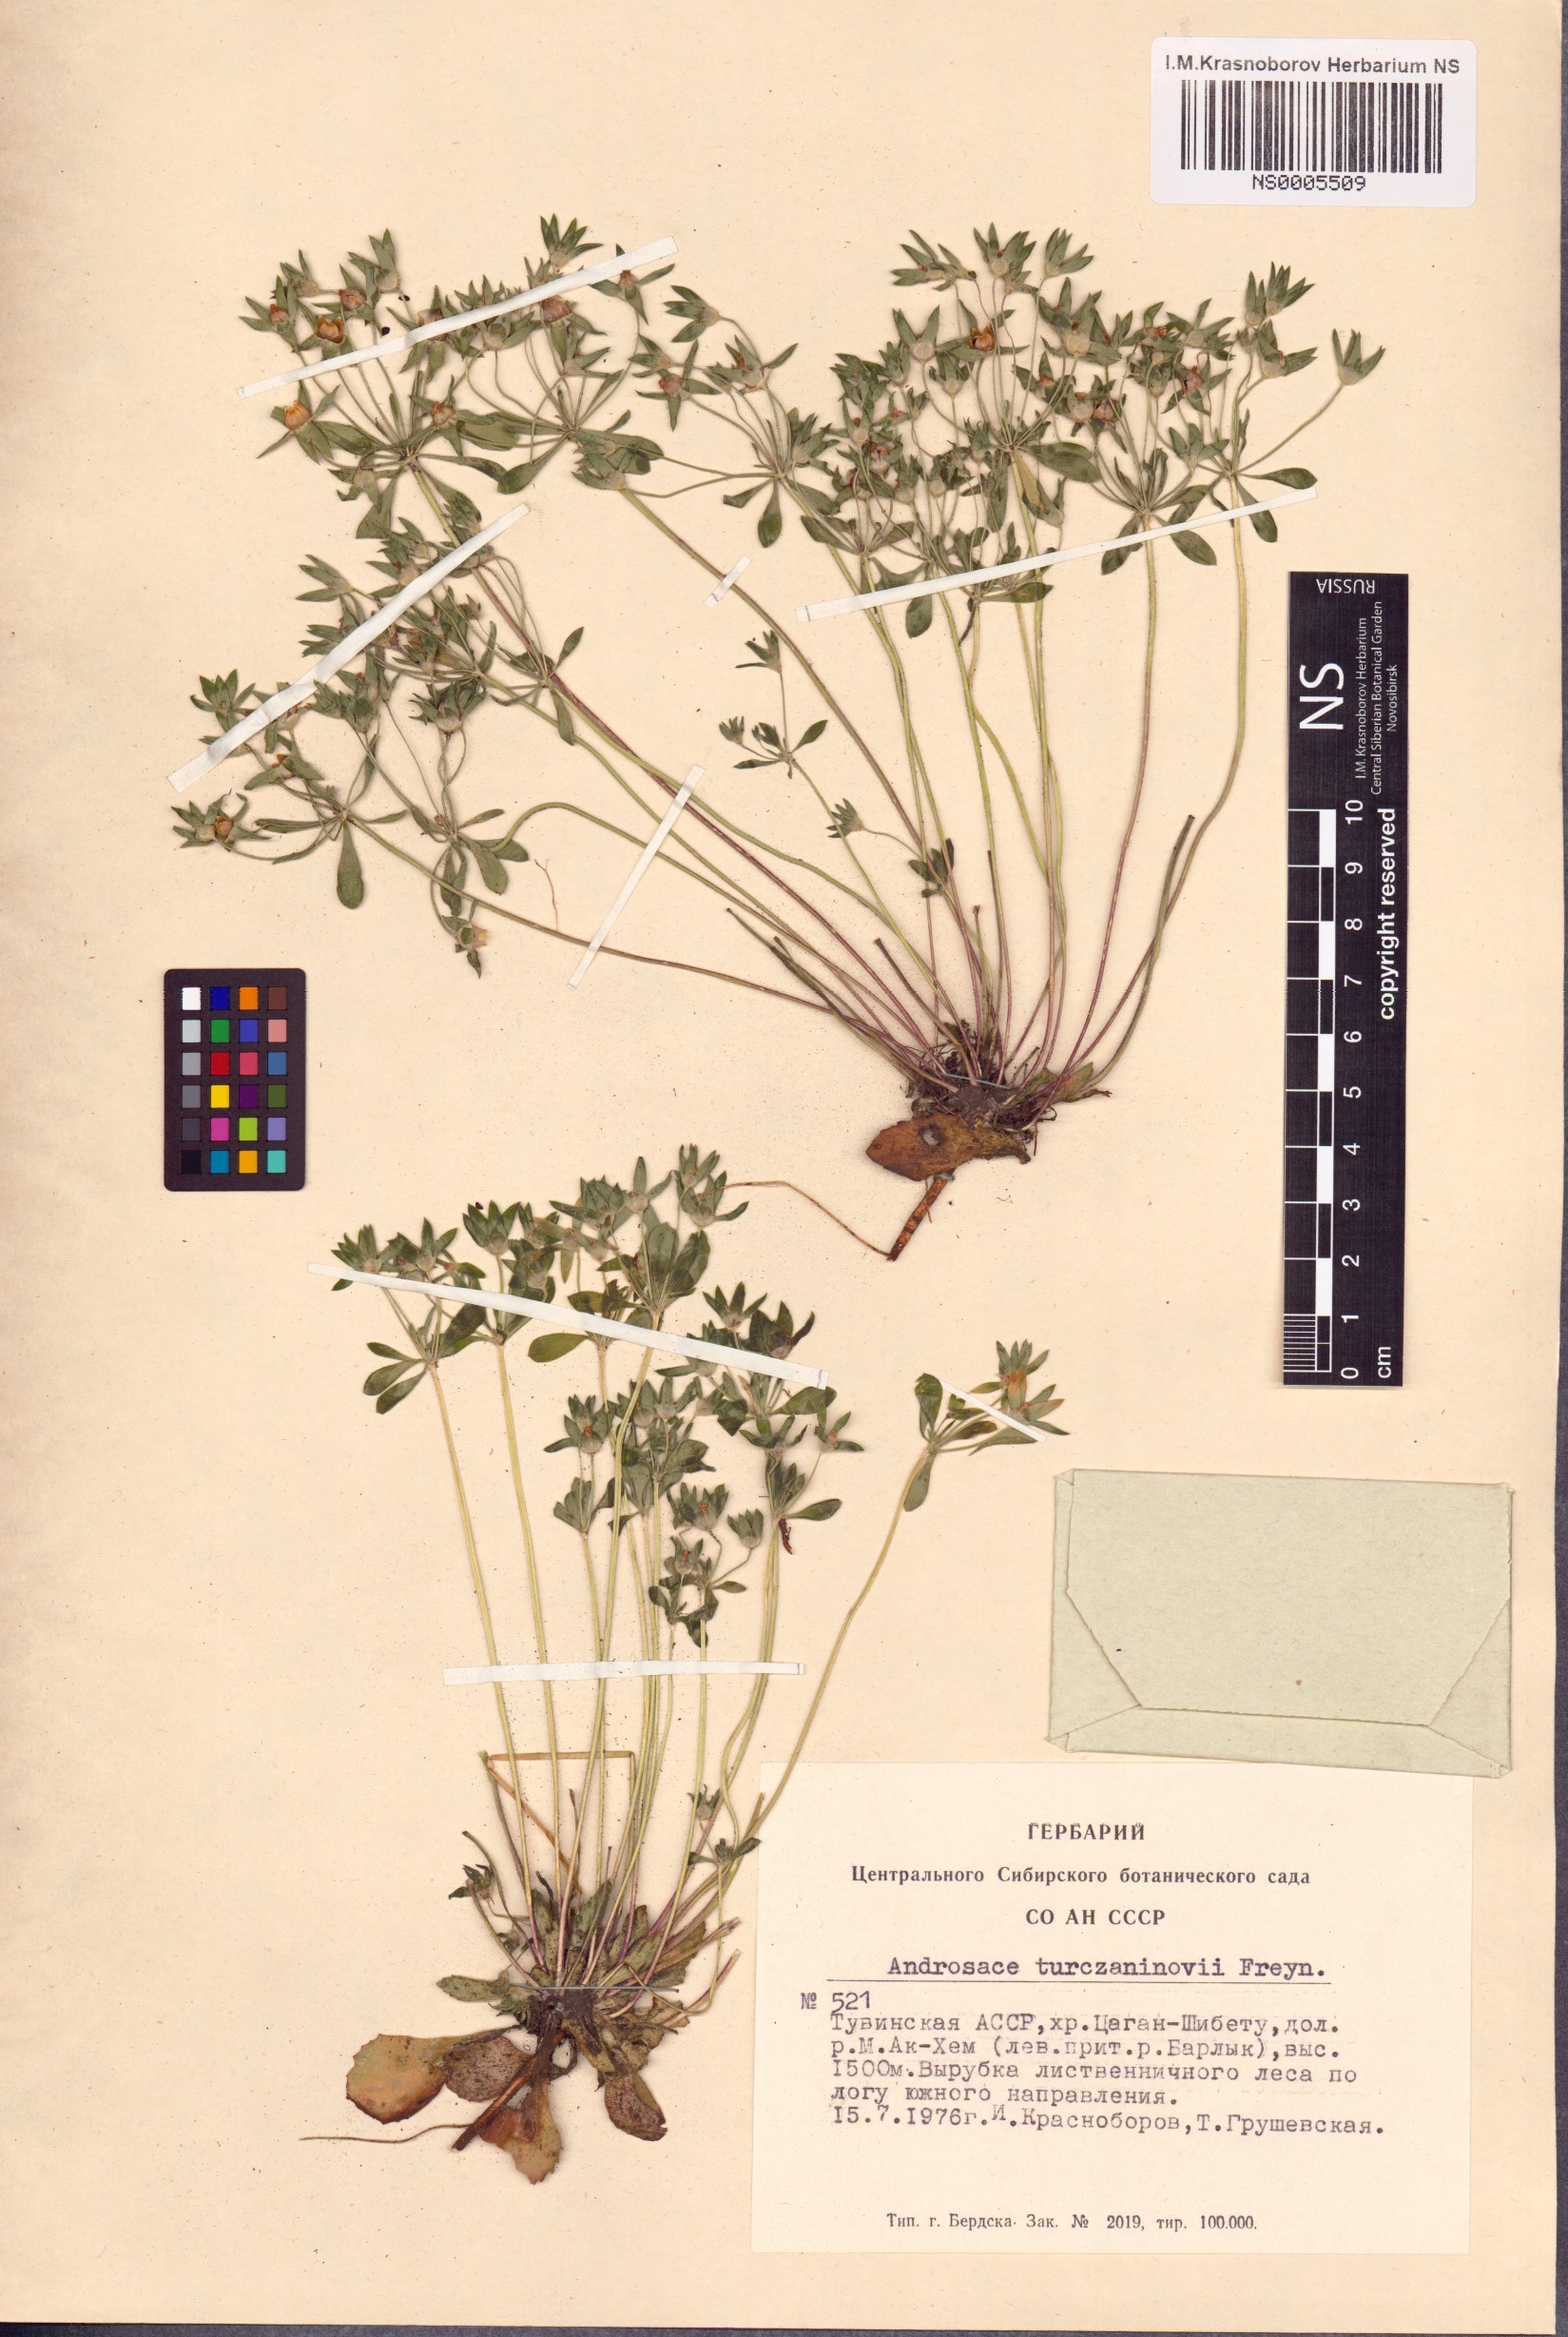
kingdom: Plantae
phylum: Tracheophyta
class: Magnoliopsida
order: Ericales
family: Primulaceae
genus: Androsace
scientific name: Androsace maxima
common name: Annual androsace
